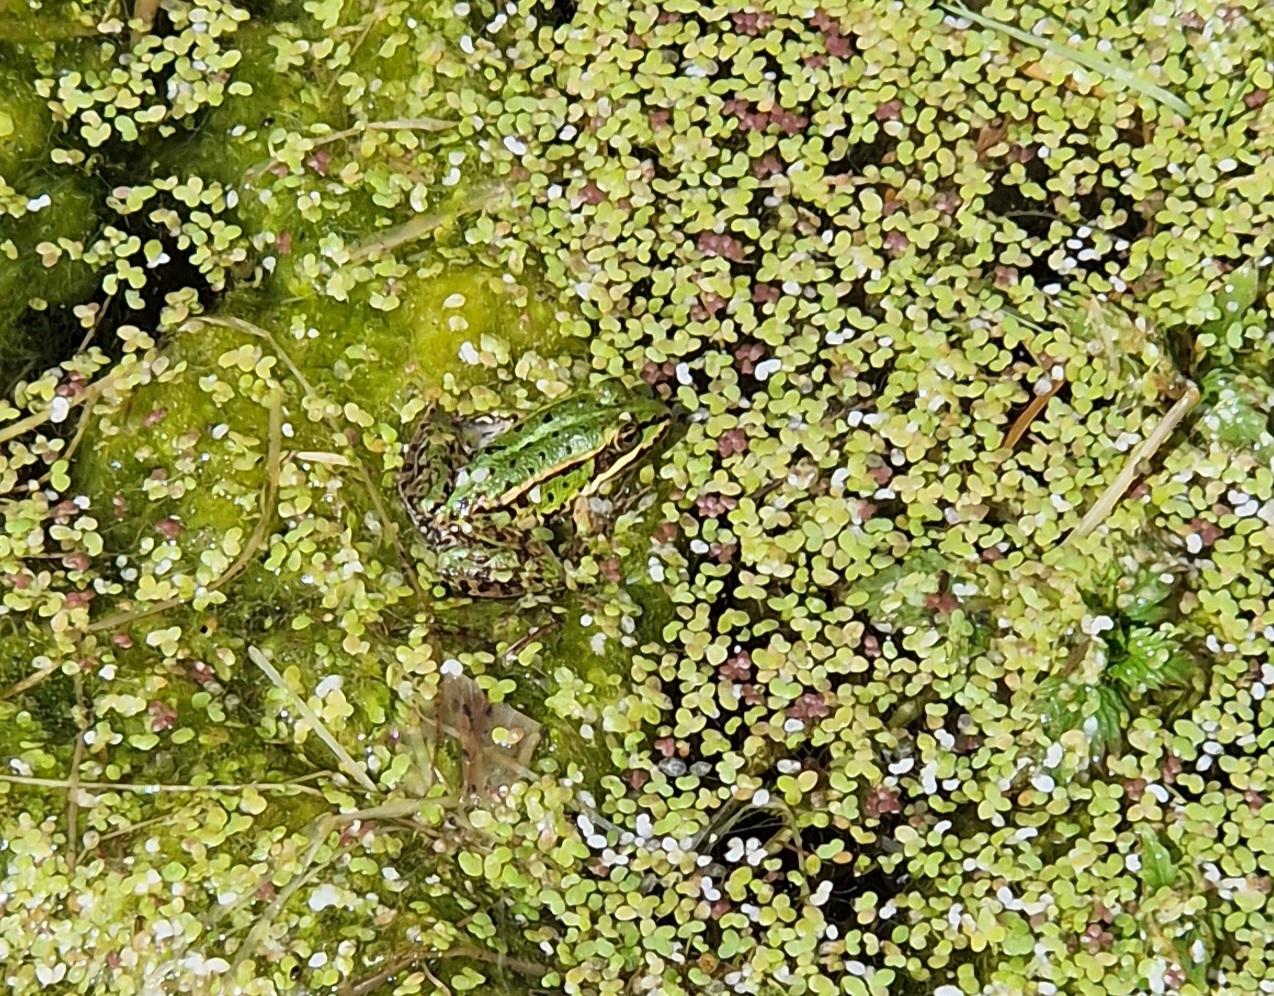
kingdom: Animalia
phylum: Chordata
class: Amphibia
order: Anura
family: Ranidae
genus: Pelophylax
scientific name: Pelophylax lessonae
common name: Grøn frø
